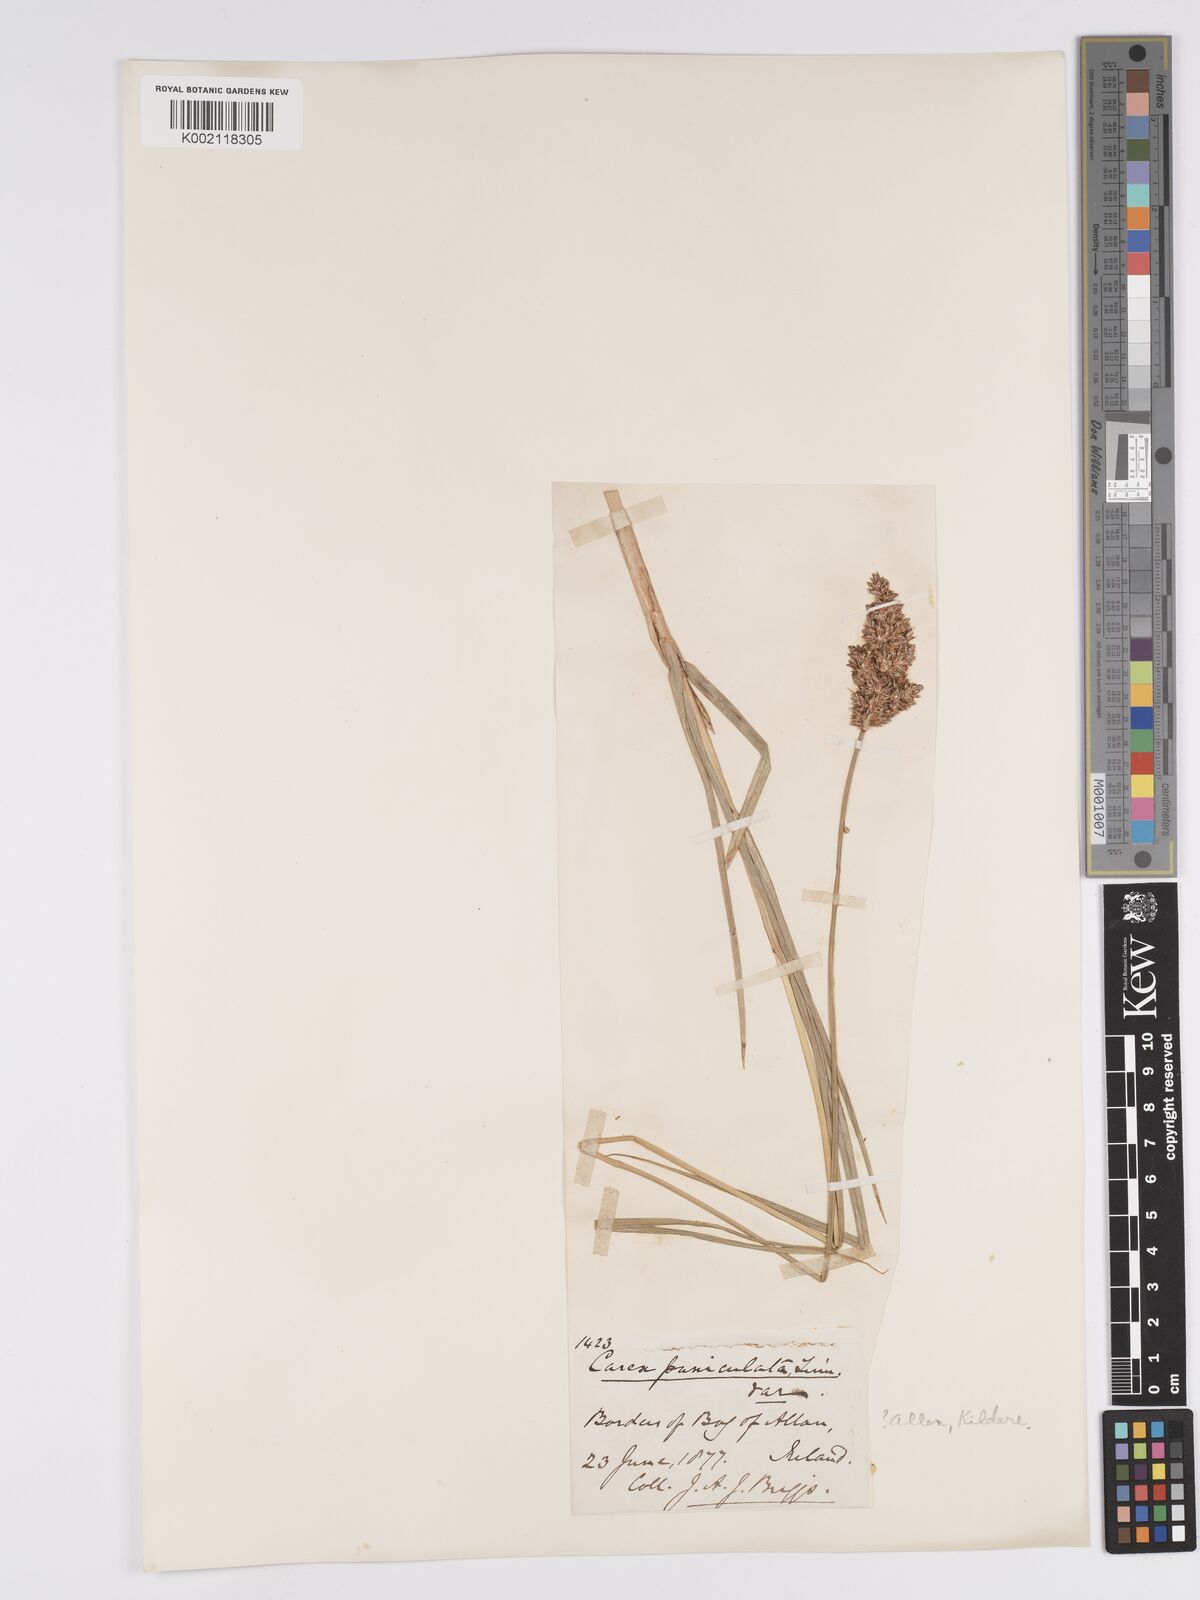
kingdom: Plantae
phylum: Tracheophyta
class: Liliopsida
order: Poales
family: Cyperaceae
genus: Carex
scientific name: Carex paniculata
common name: Greater tussock-sedge
